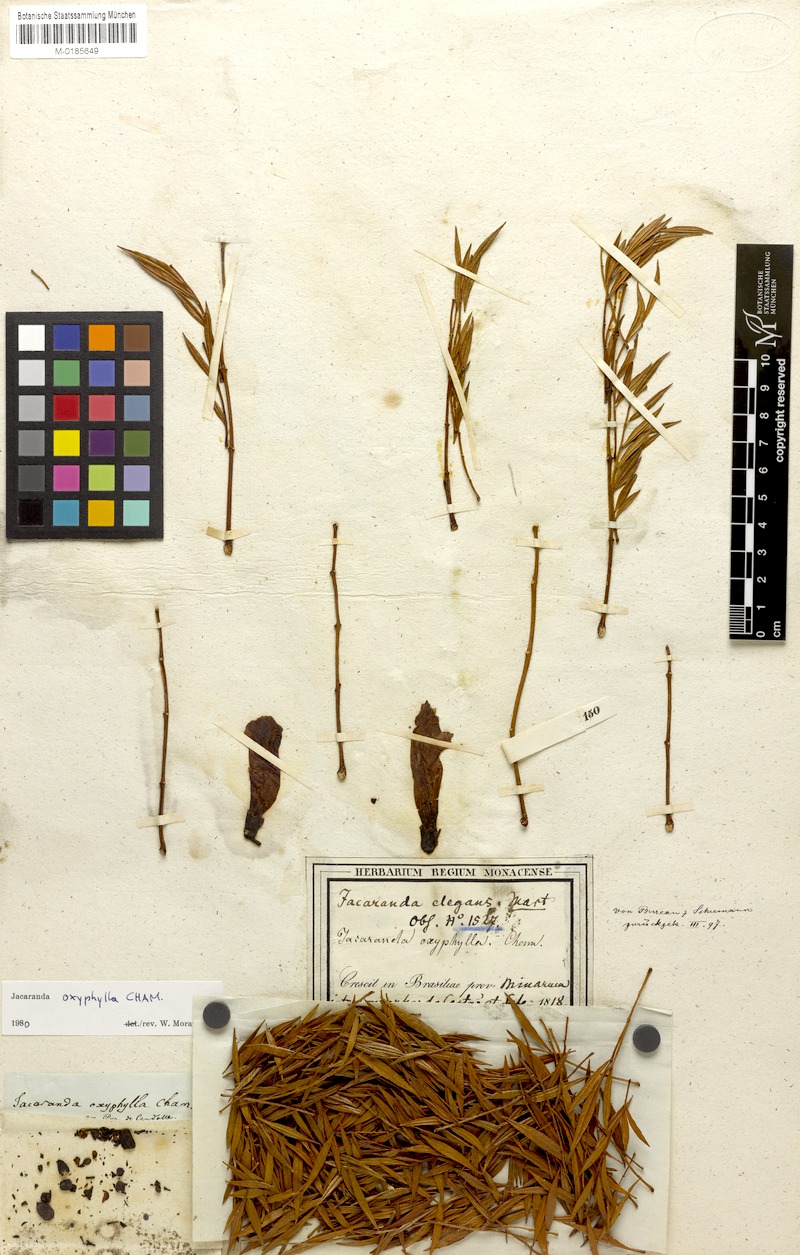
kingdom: Plantae
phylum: Tracheophyta
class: Magnoliopsida
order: Lamiales
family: Bignoniaceae
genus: Jacaranda
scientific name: Jacaranda caroba
